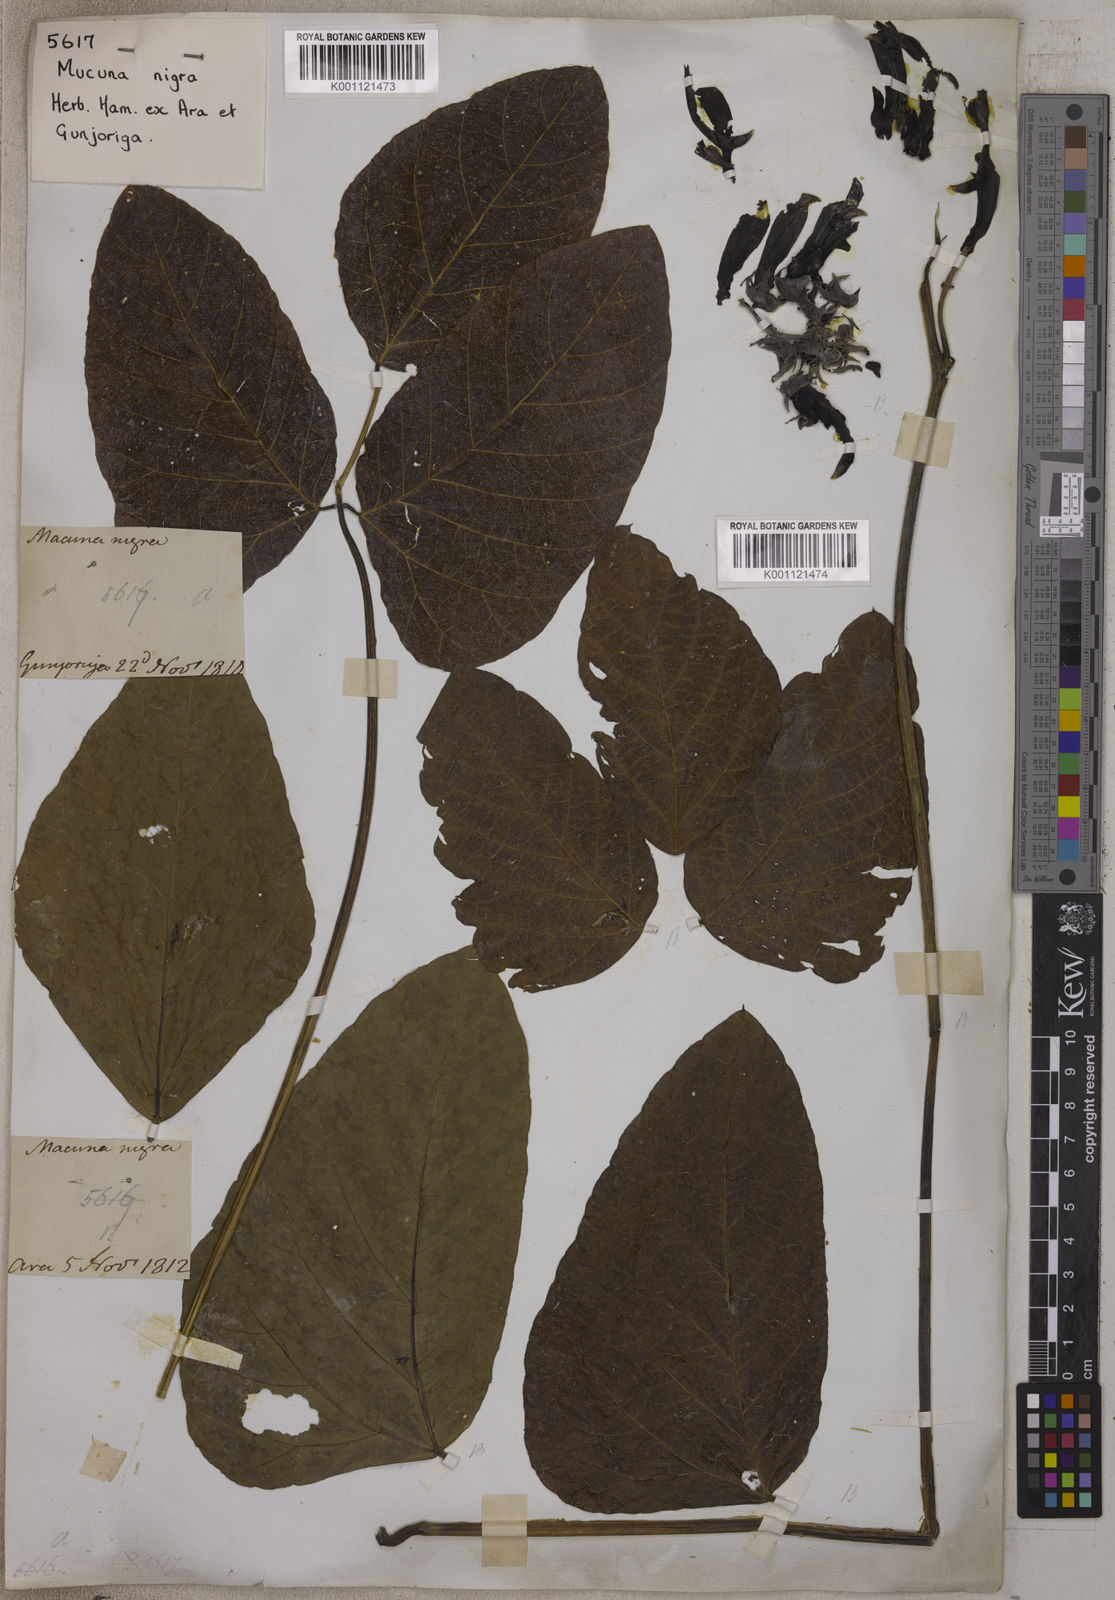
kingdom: Plantae
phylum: Tracheophyta
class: Magnoliopsida
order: Fabales
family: Fabaceae
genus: Mucuna
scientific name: Mucuna pruriens
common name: Cow-itch
